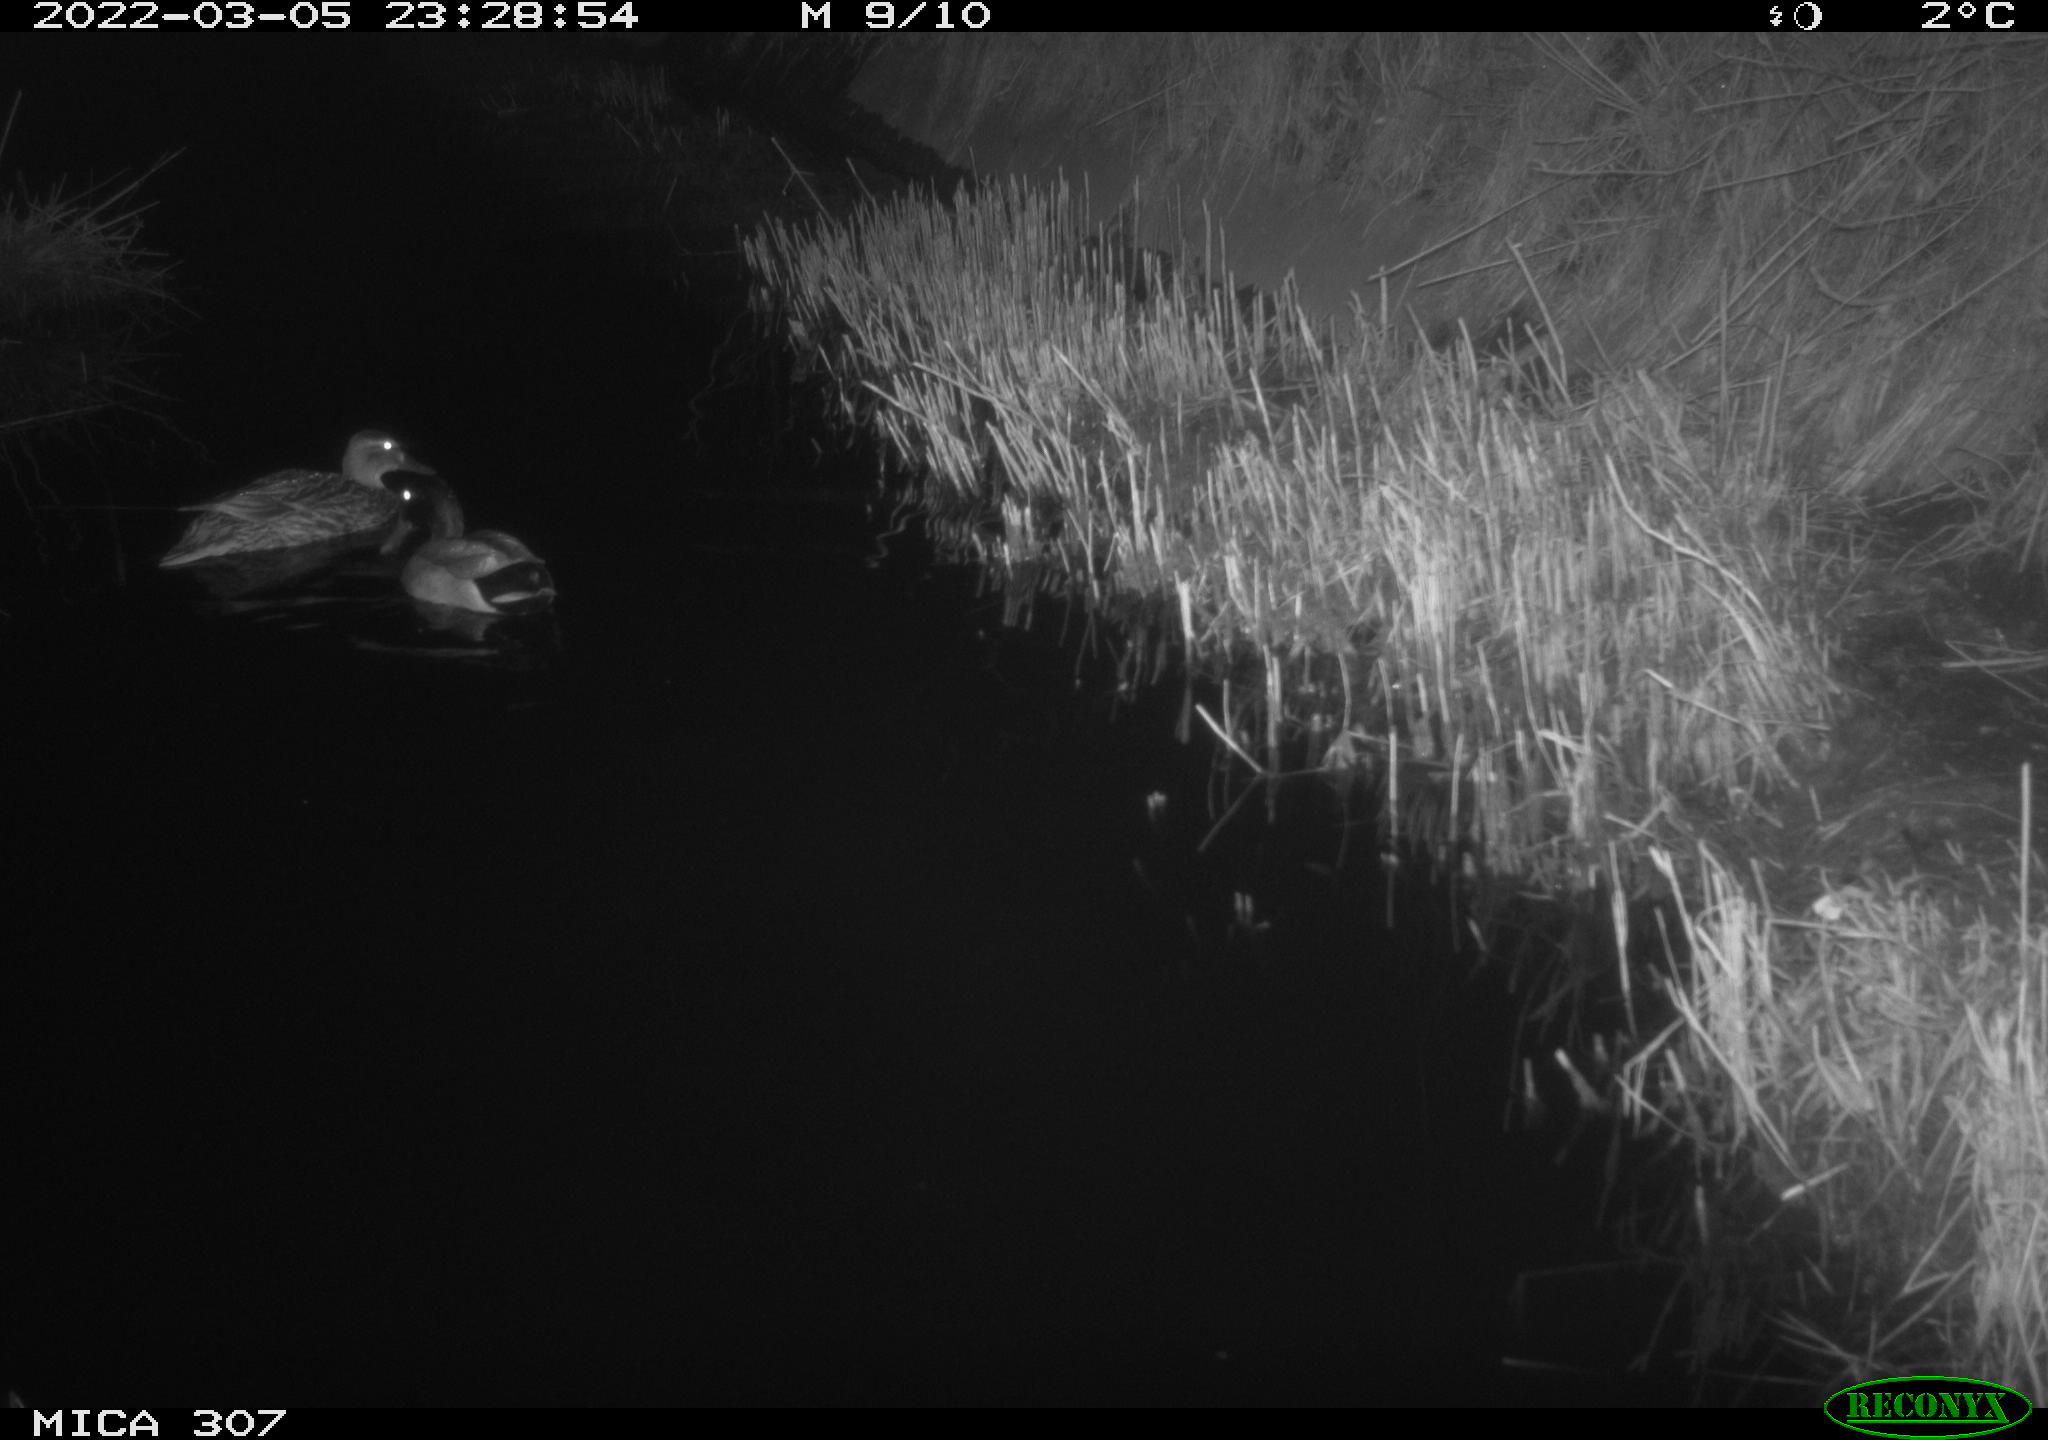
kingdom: Animalia
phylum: Chordata
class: Aves
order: Anseriformes
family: Anatidae
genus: Anas
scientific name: Anas platyrhynchos
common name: Mallard
